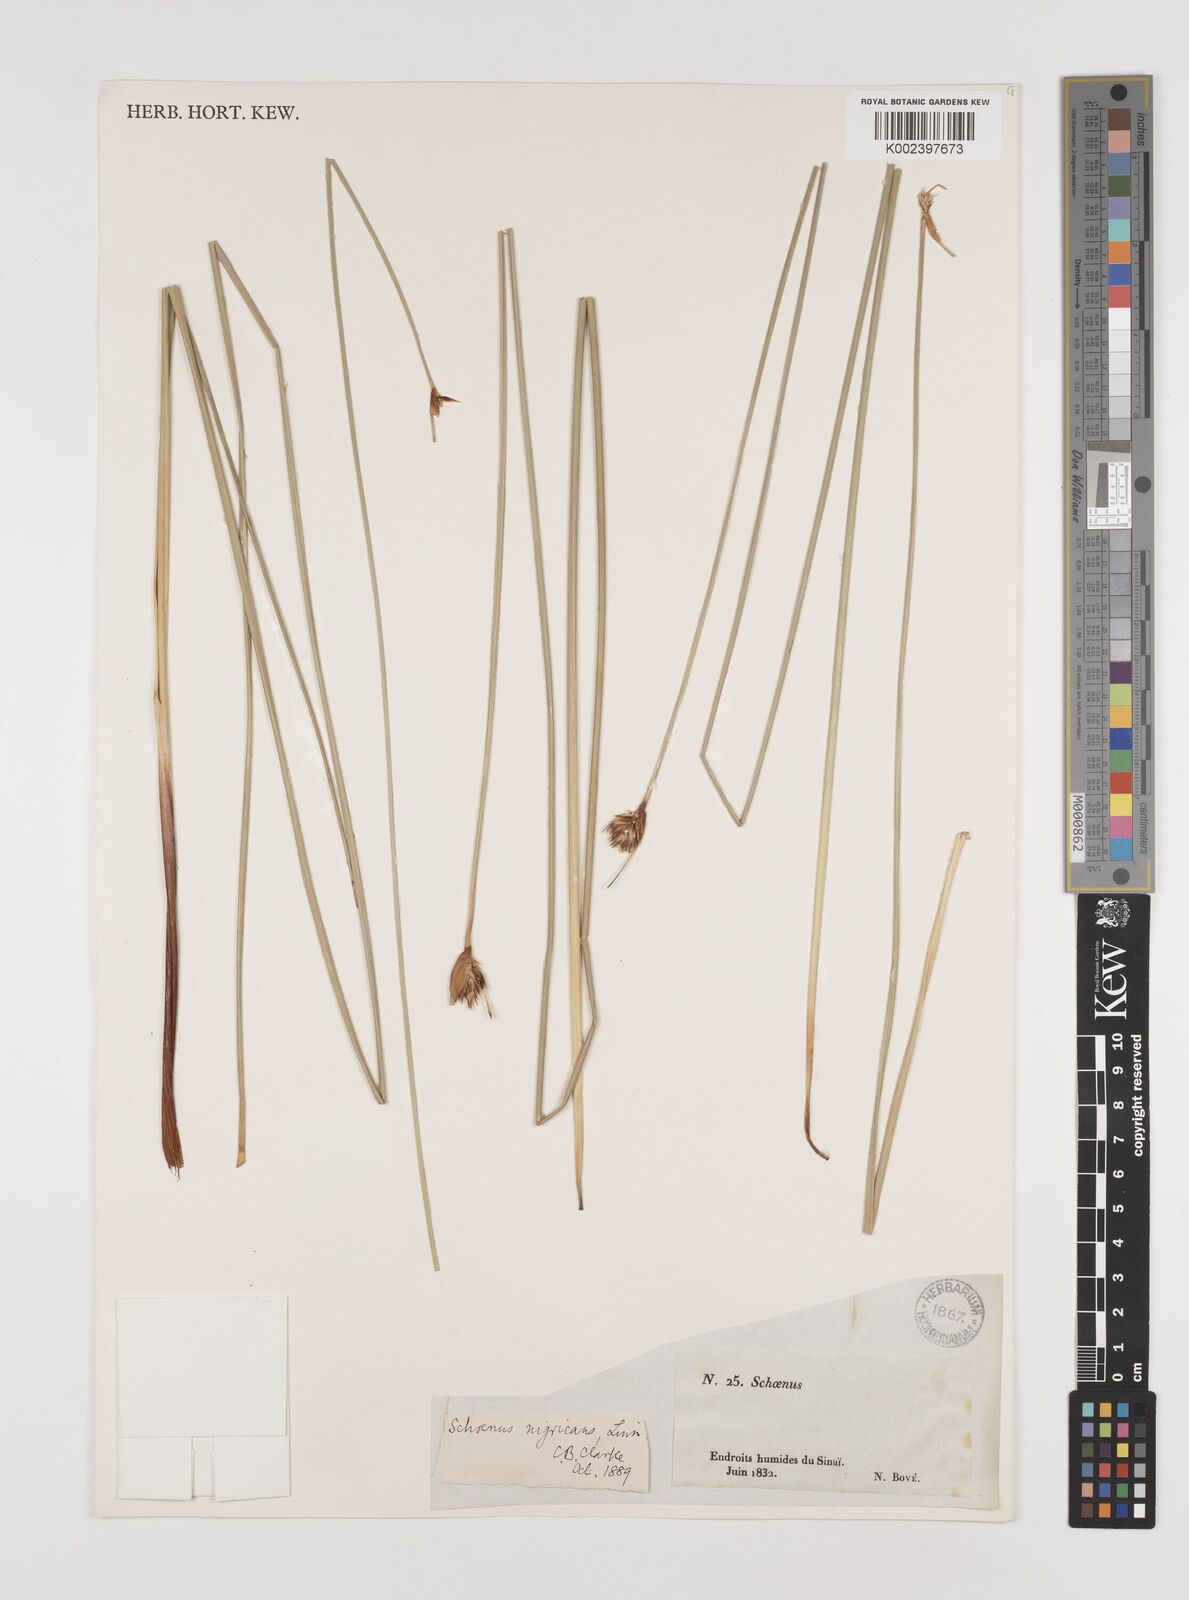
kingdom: Plantae
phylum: Tracheophyta
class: Liliopsida
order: Poales
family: Cyperaceae
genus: Schoenus
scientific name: Schoenus nigricans
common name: Black bog-rush
